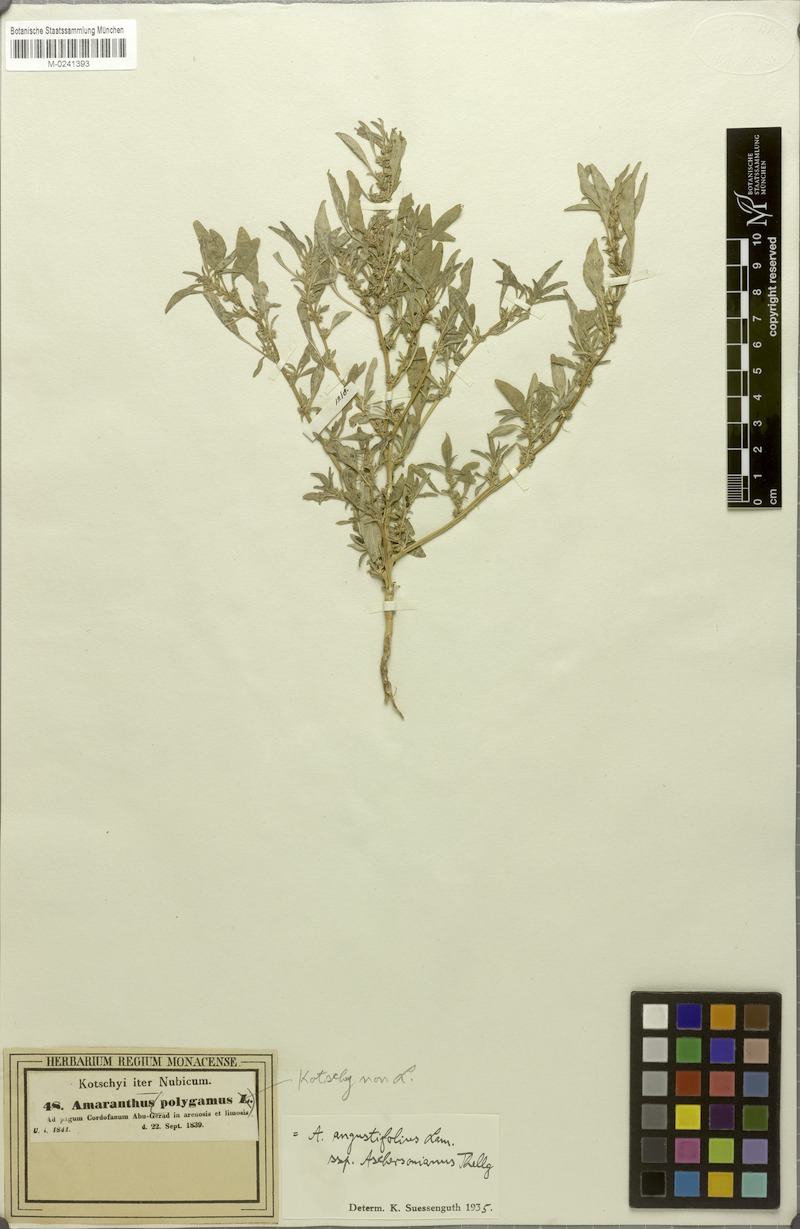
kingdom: Plantae
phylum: Tracheophyta
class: Magnoliopsida
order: Caryophyllales
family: Amaranthaceae
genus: Amaranthus
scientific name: Amaranthus graecizans
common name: Mediterranean amaranth
